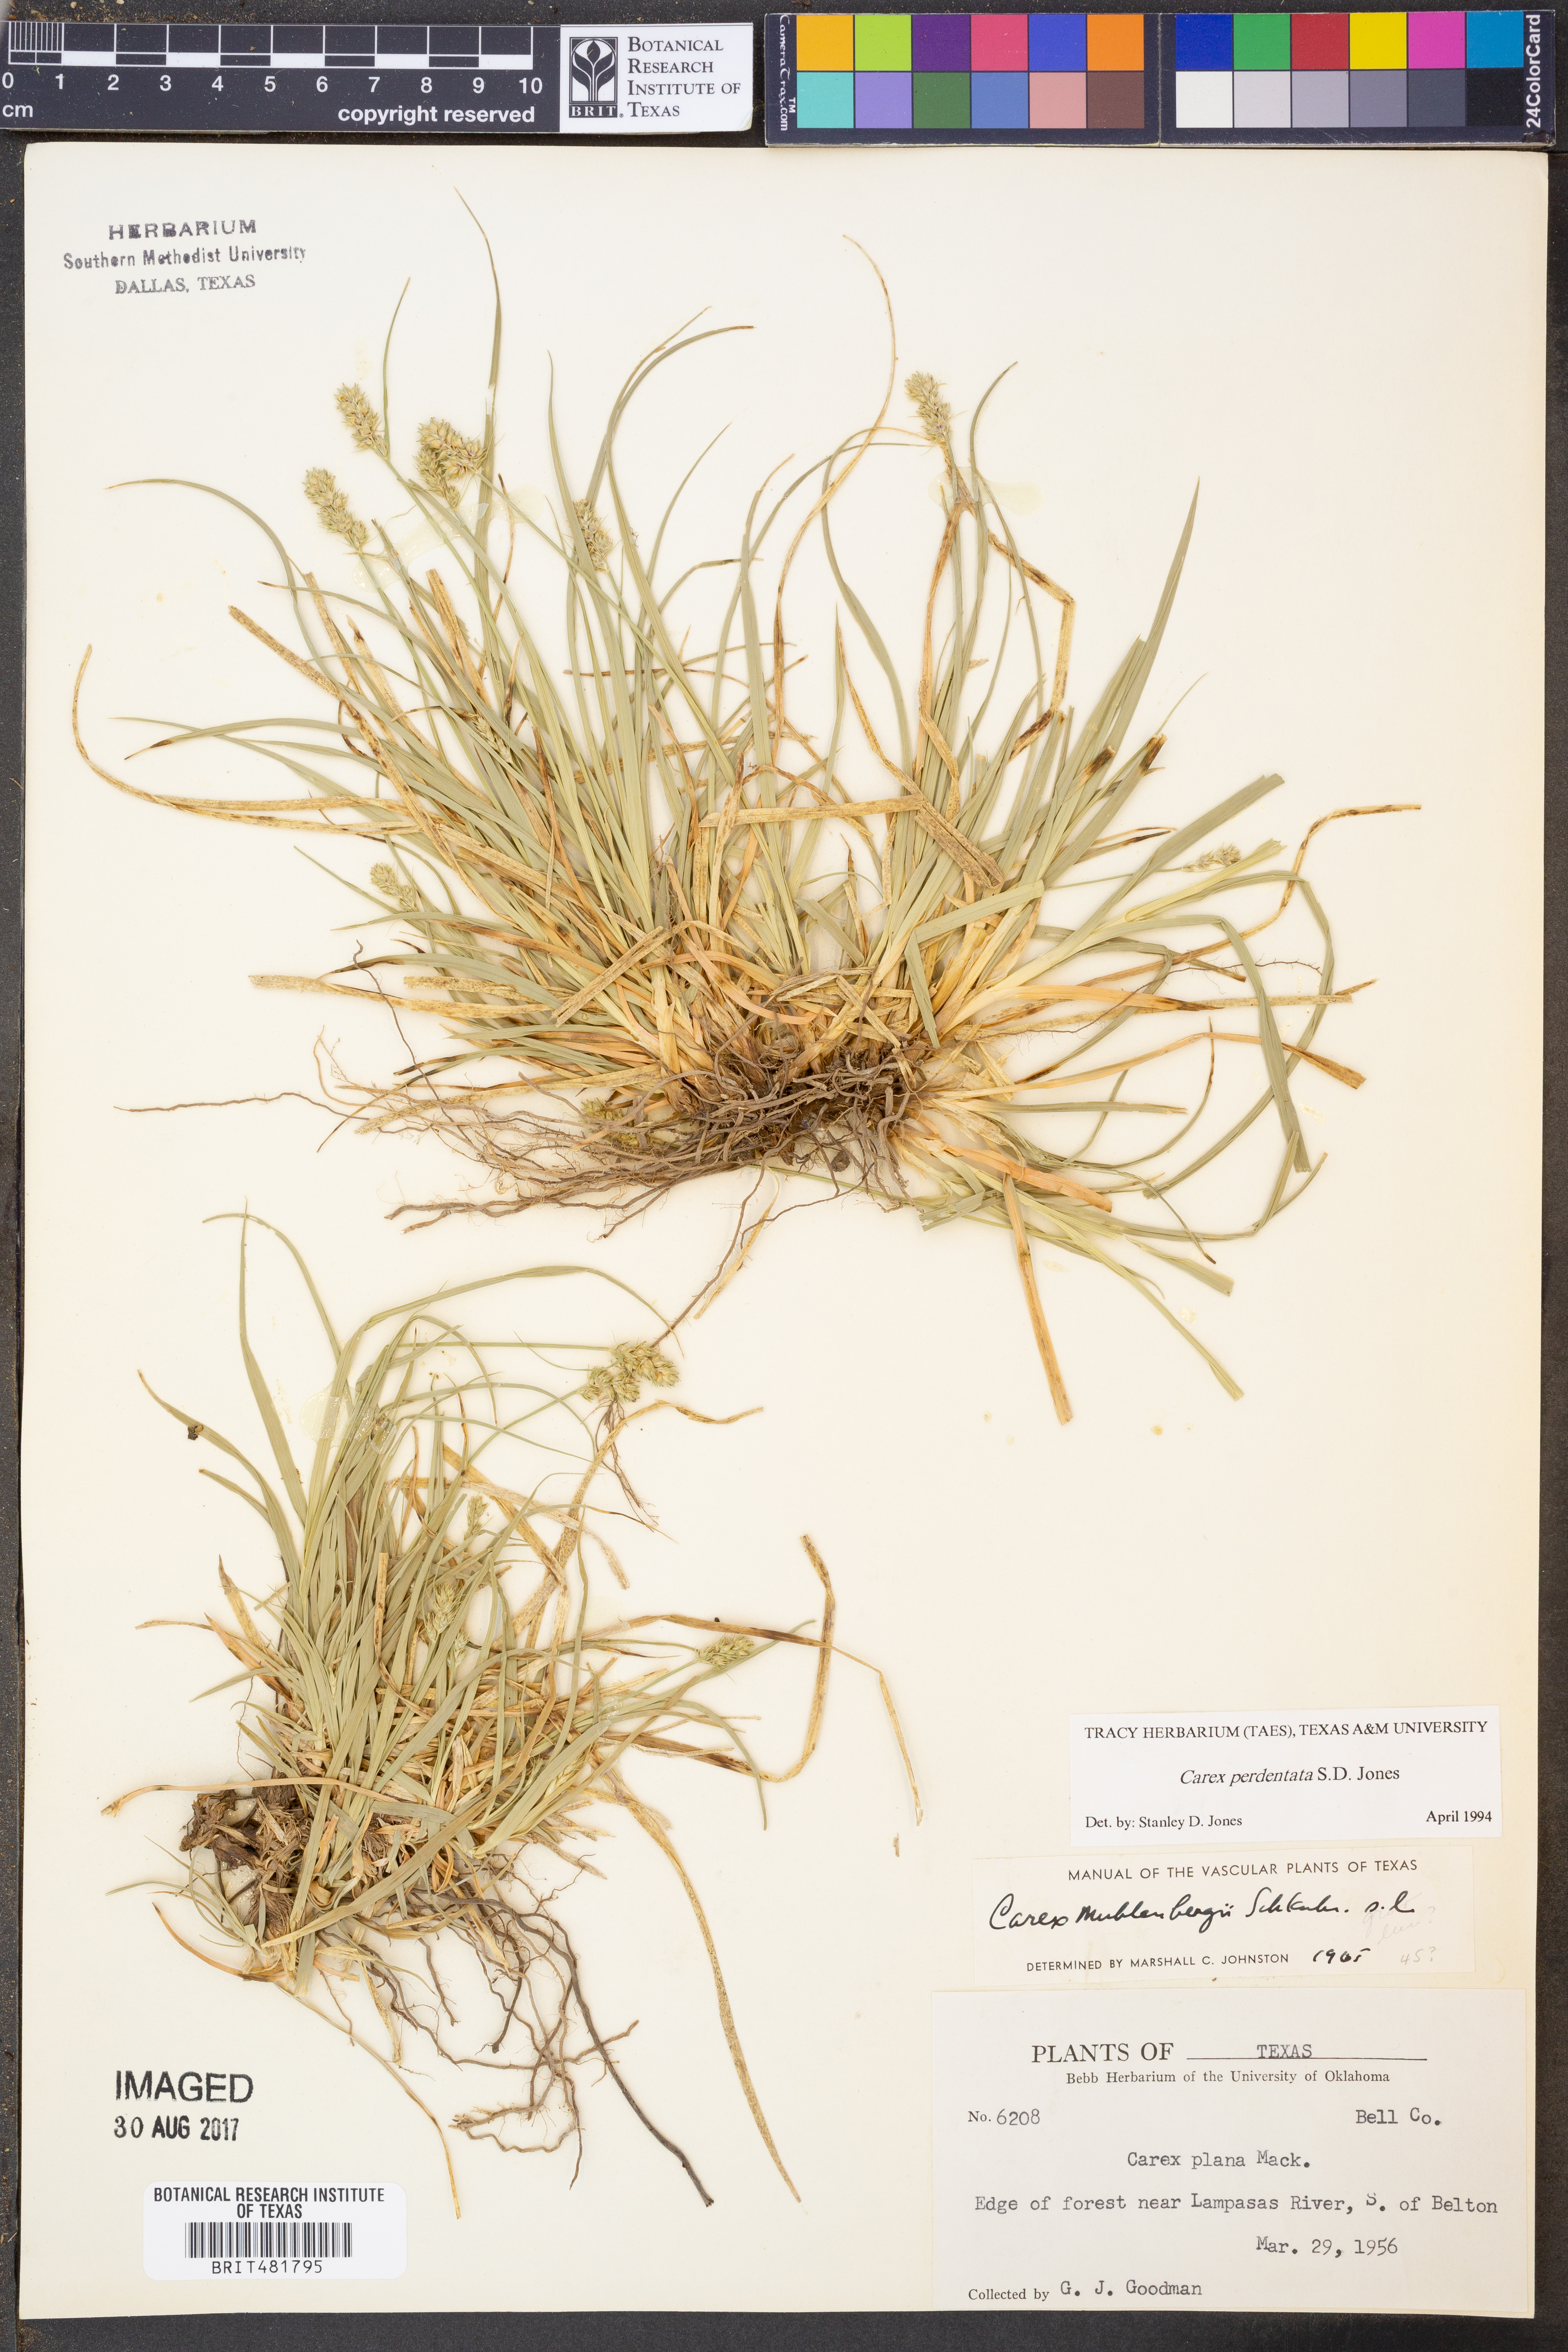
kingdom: Plantae
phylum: Tracheophyta
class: Liliopsida
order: Poales
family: Cyperaceae
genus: Carex
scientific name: Carex perdentata
